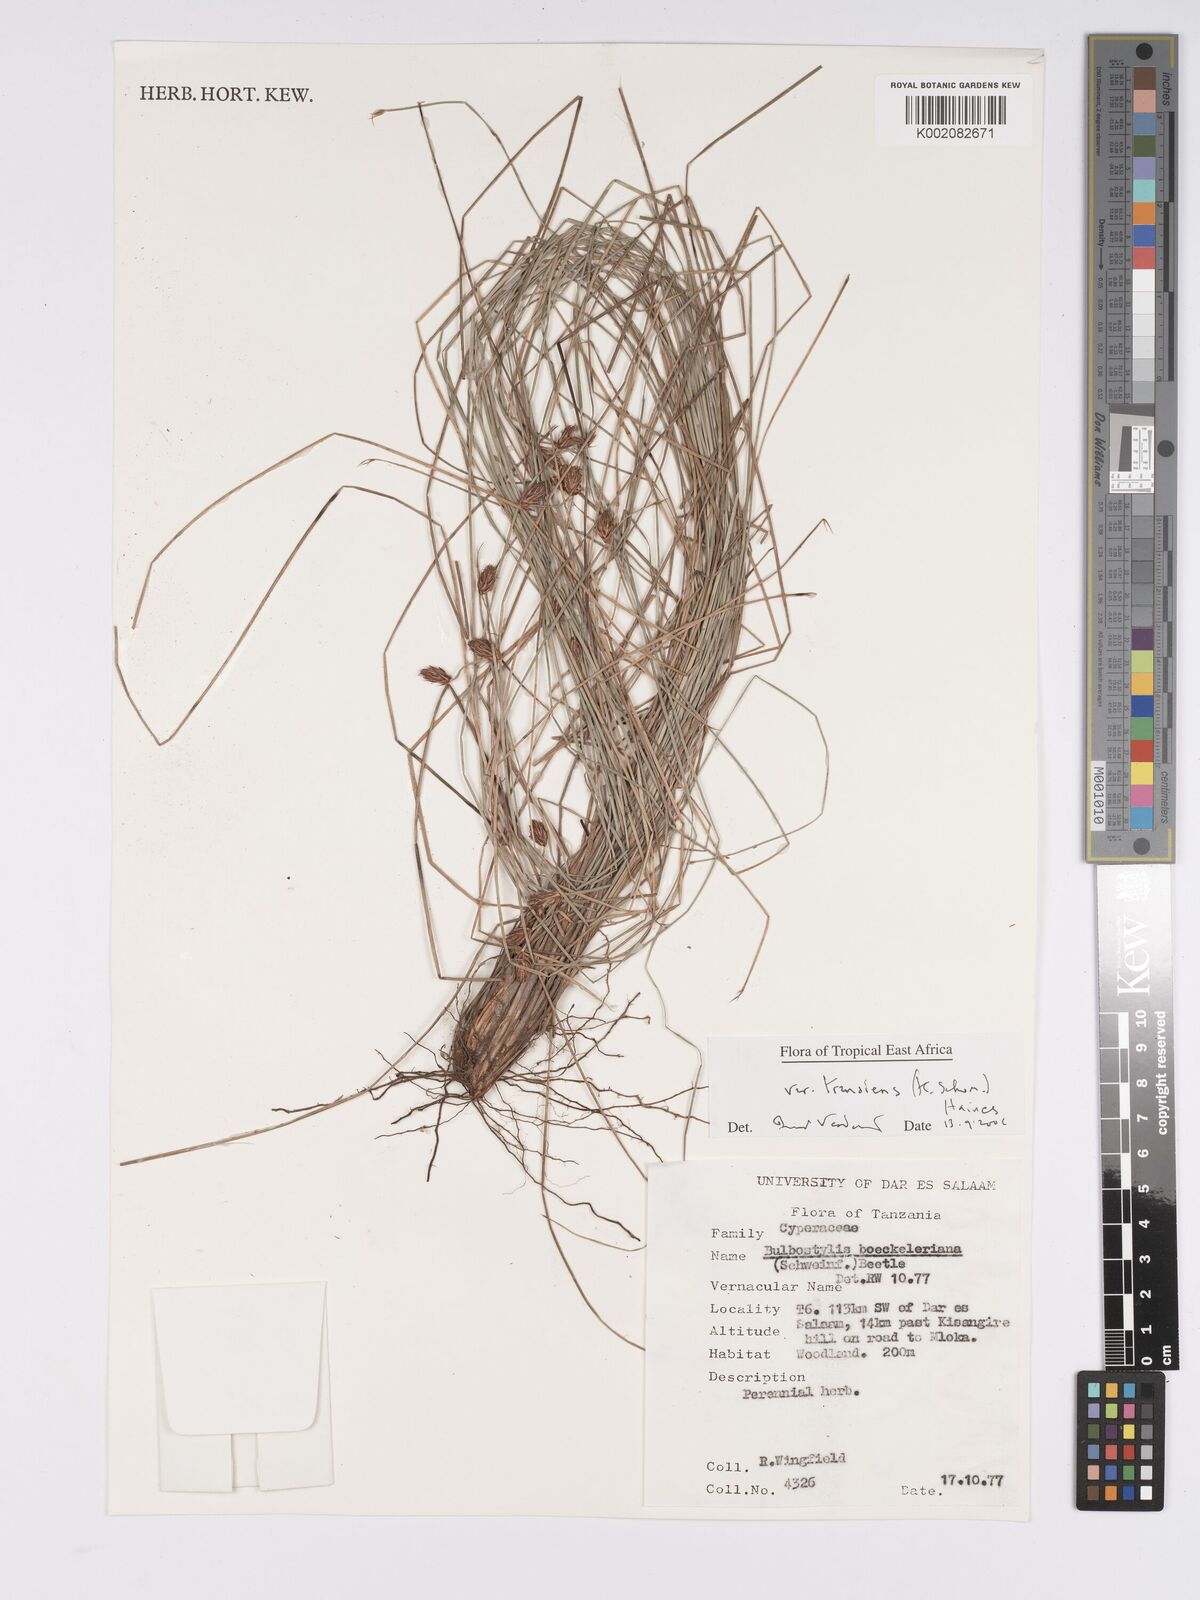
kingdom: Plantae
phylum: Tracheophyta
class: Liliopsida
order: Poales
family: Cyperaceae
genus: Bulbostylis
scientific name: Bulbostylis boeckeleriana
